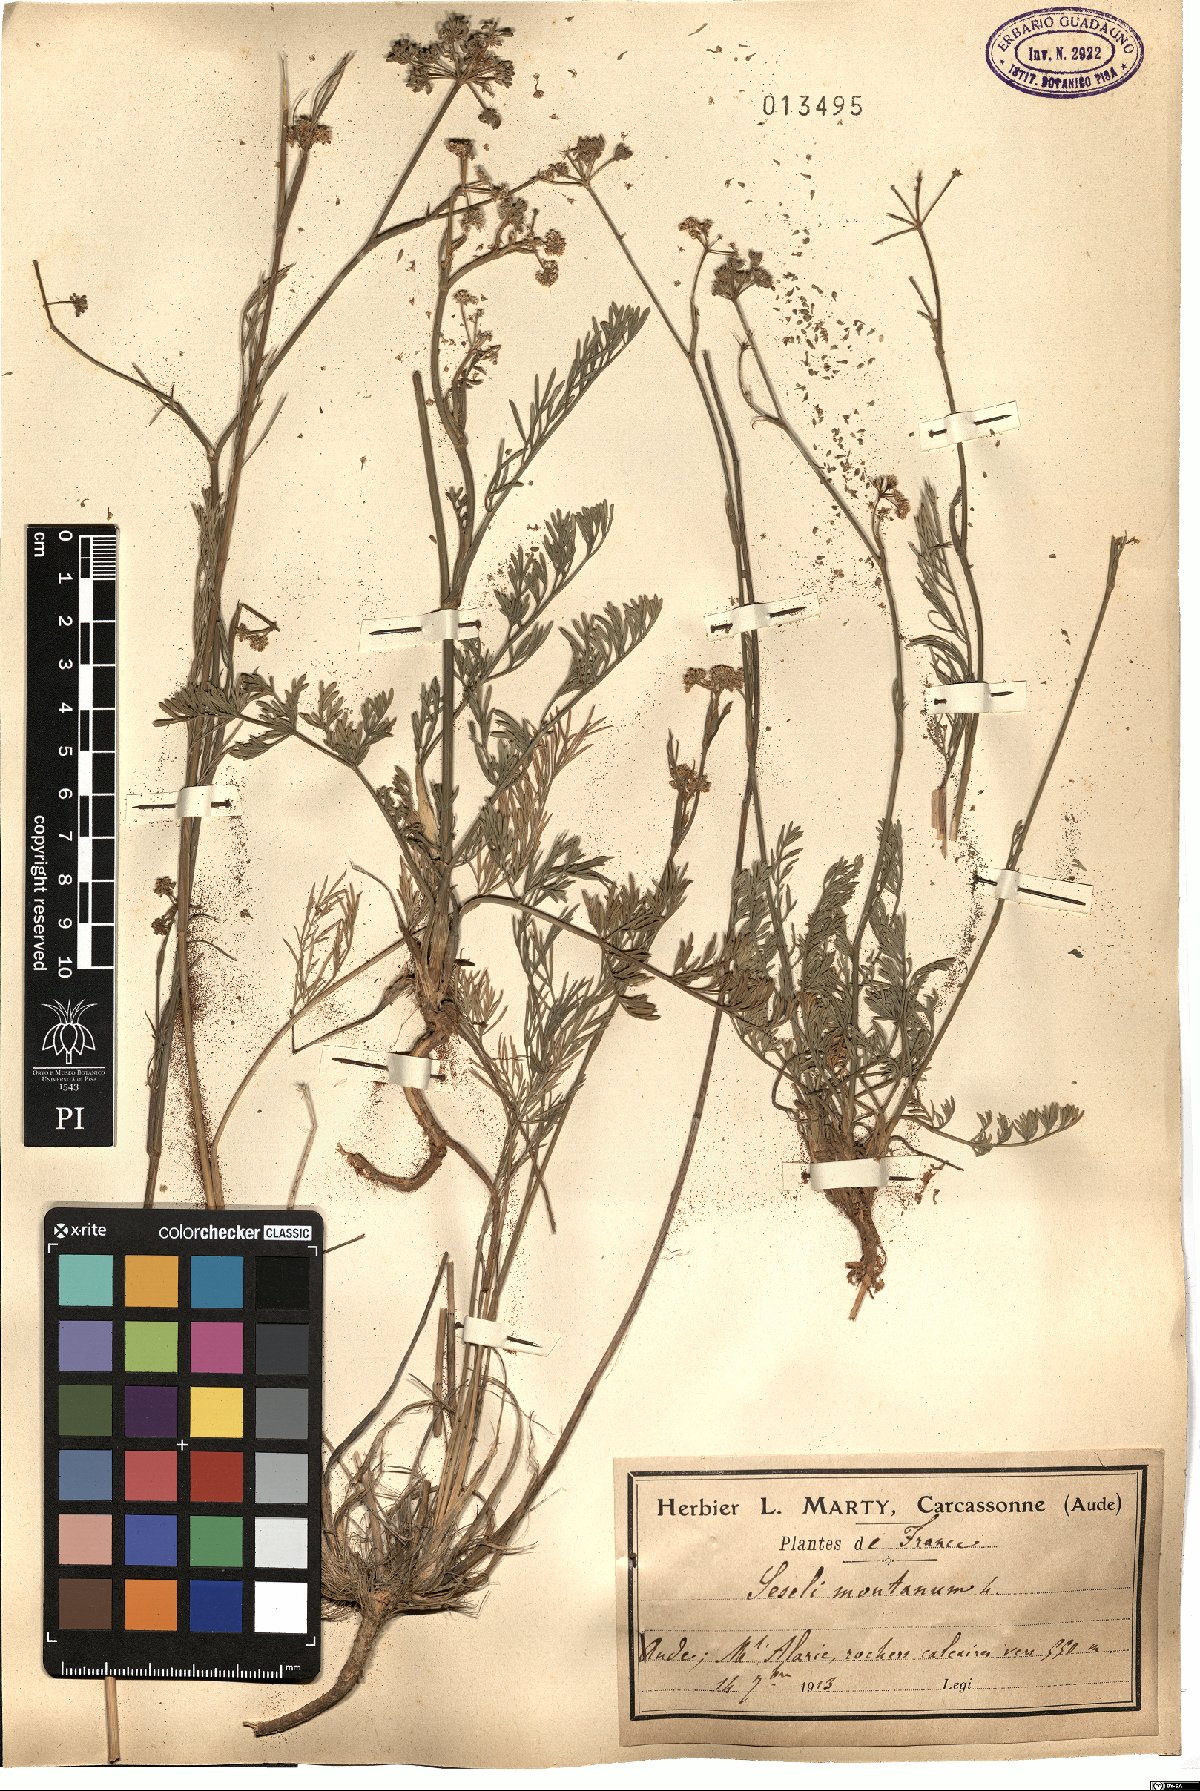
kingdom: Plantae
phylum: Tracheophyta
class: Magnoliopsida
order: Apiales
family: Apiaceae
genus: Seseli
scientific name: Seseli montanum
